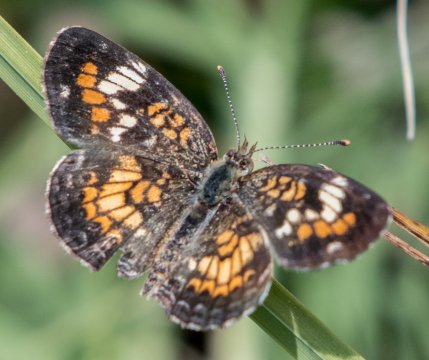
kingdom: Animalia
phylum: Arthropoda
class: Insecta
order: Lepidoptera
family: Nymphalidae
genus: Phyciodes
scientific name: Phyciodes phaon
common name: Phaon Crescent
